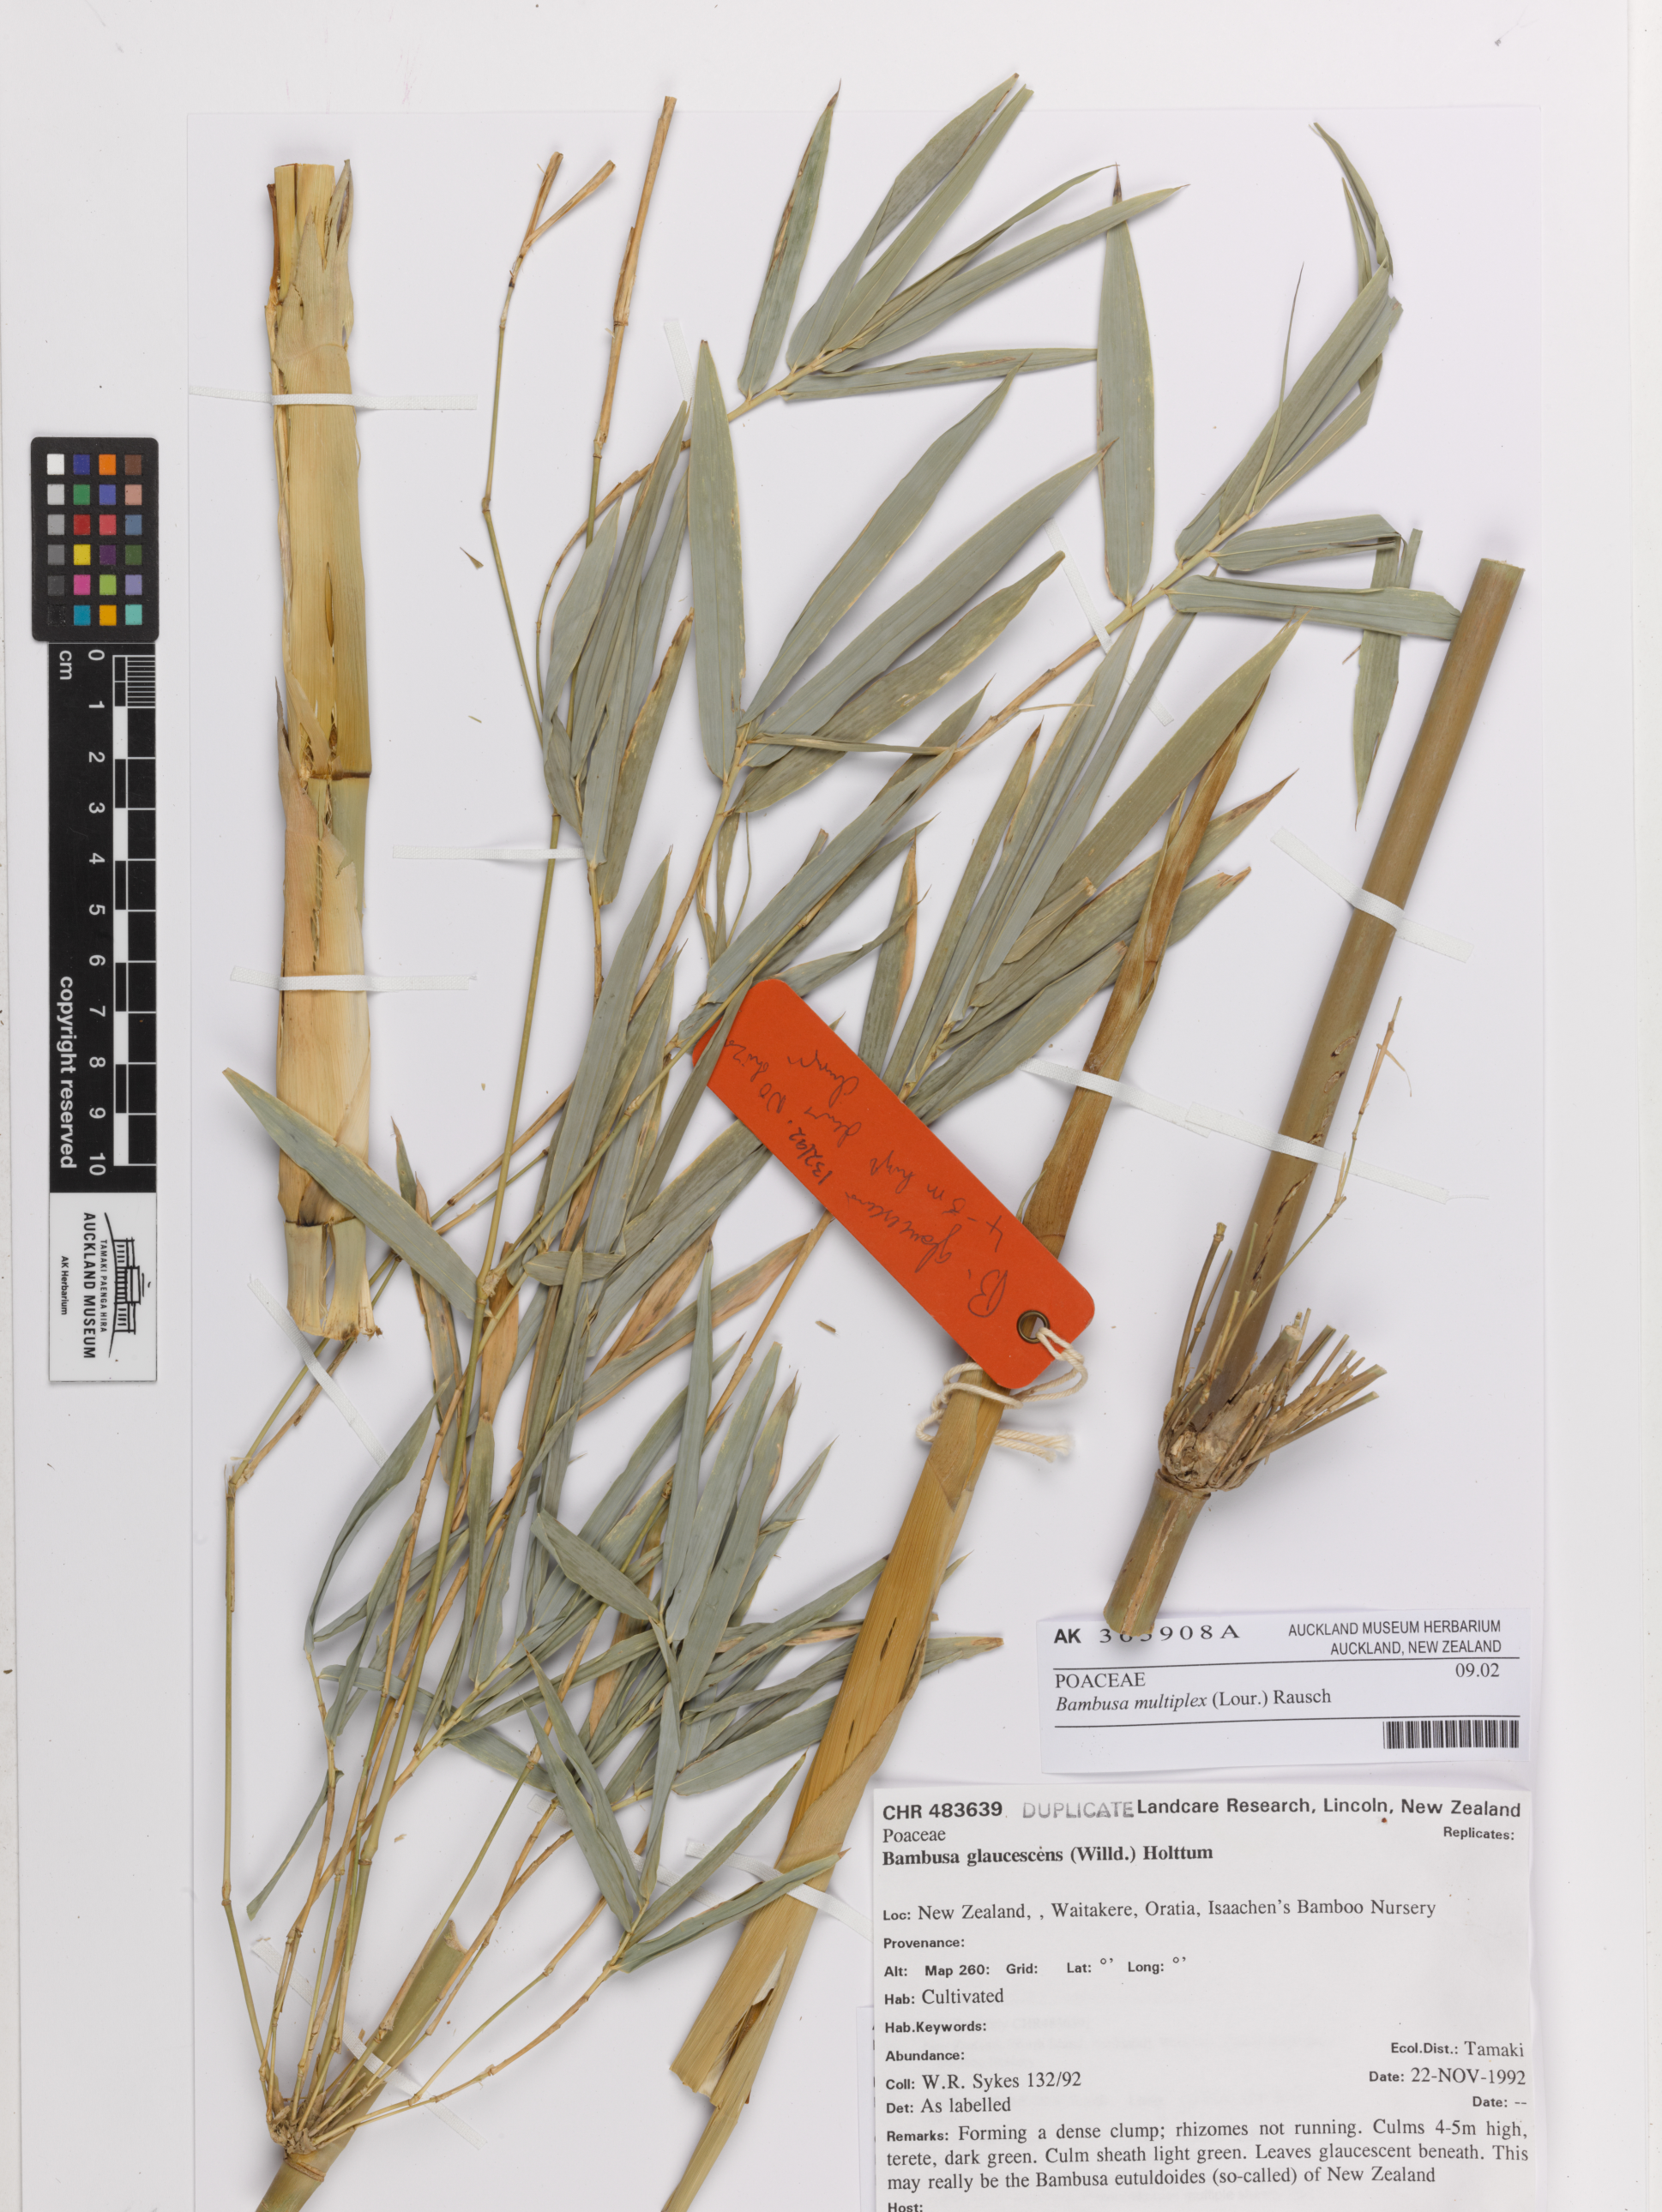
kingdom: Plantae
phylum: Tracheophyta
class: Liliopsida
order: Poales
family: Poaceae
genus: Bambusa
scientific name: Bambusa multiplex
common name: Hedge bamboo
